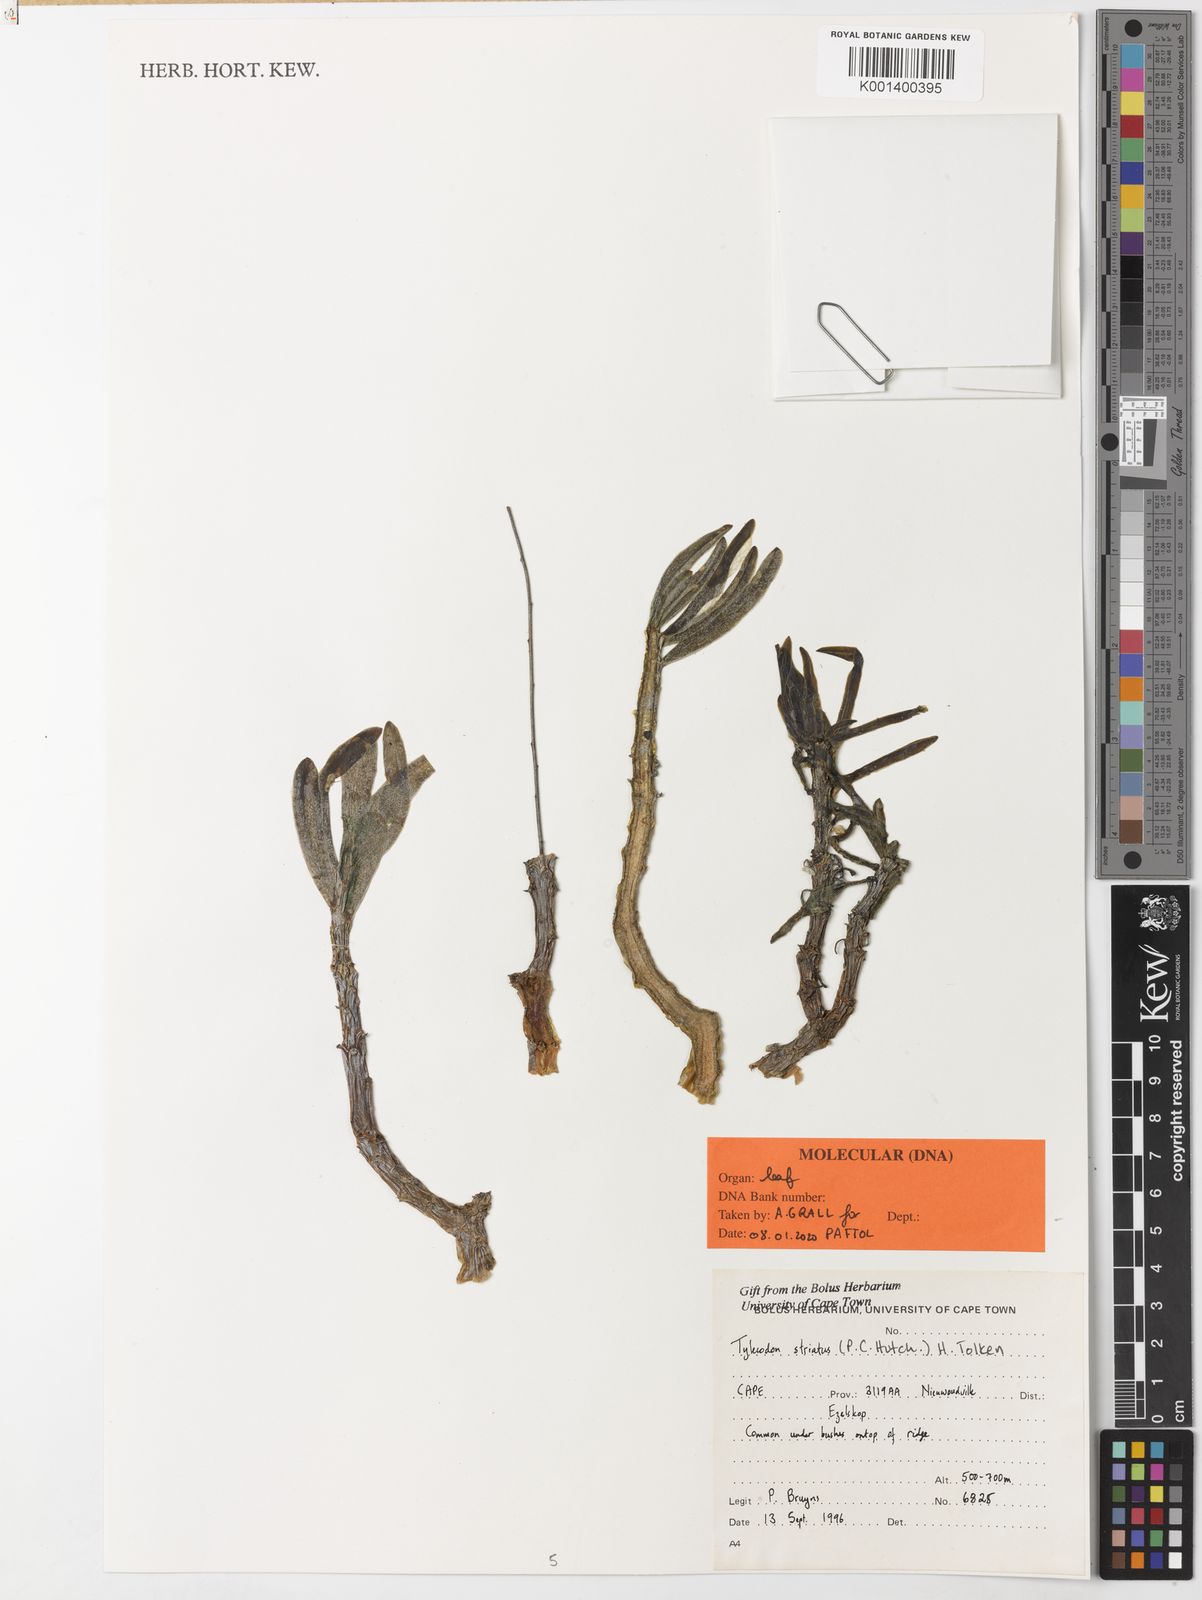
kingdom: Plantae
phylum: Tracheophyta
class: Magnoliopsida
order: Saxifragales
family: Crassulaceae
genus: Tylecodon
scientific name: Tylecodon striatus
